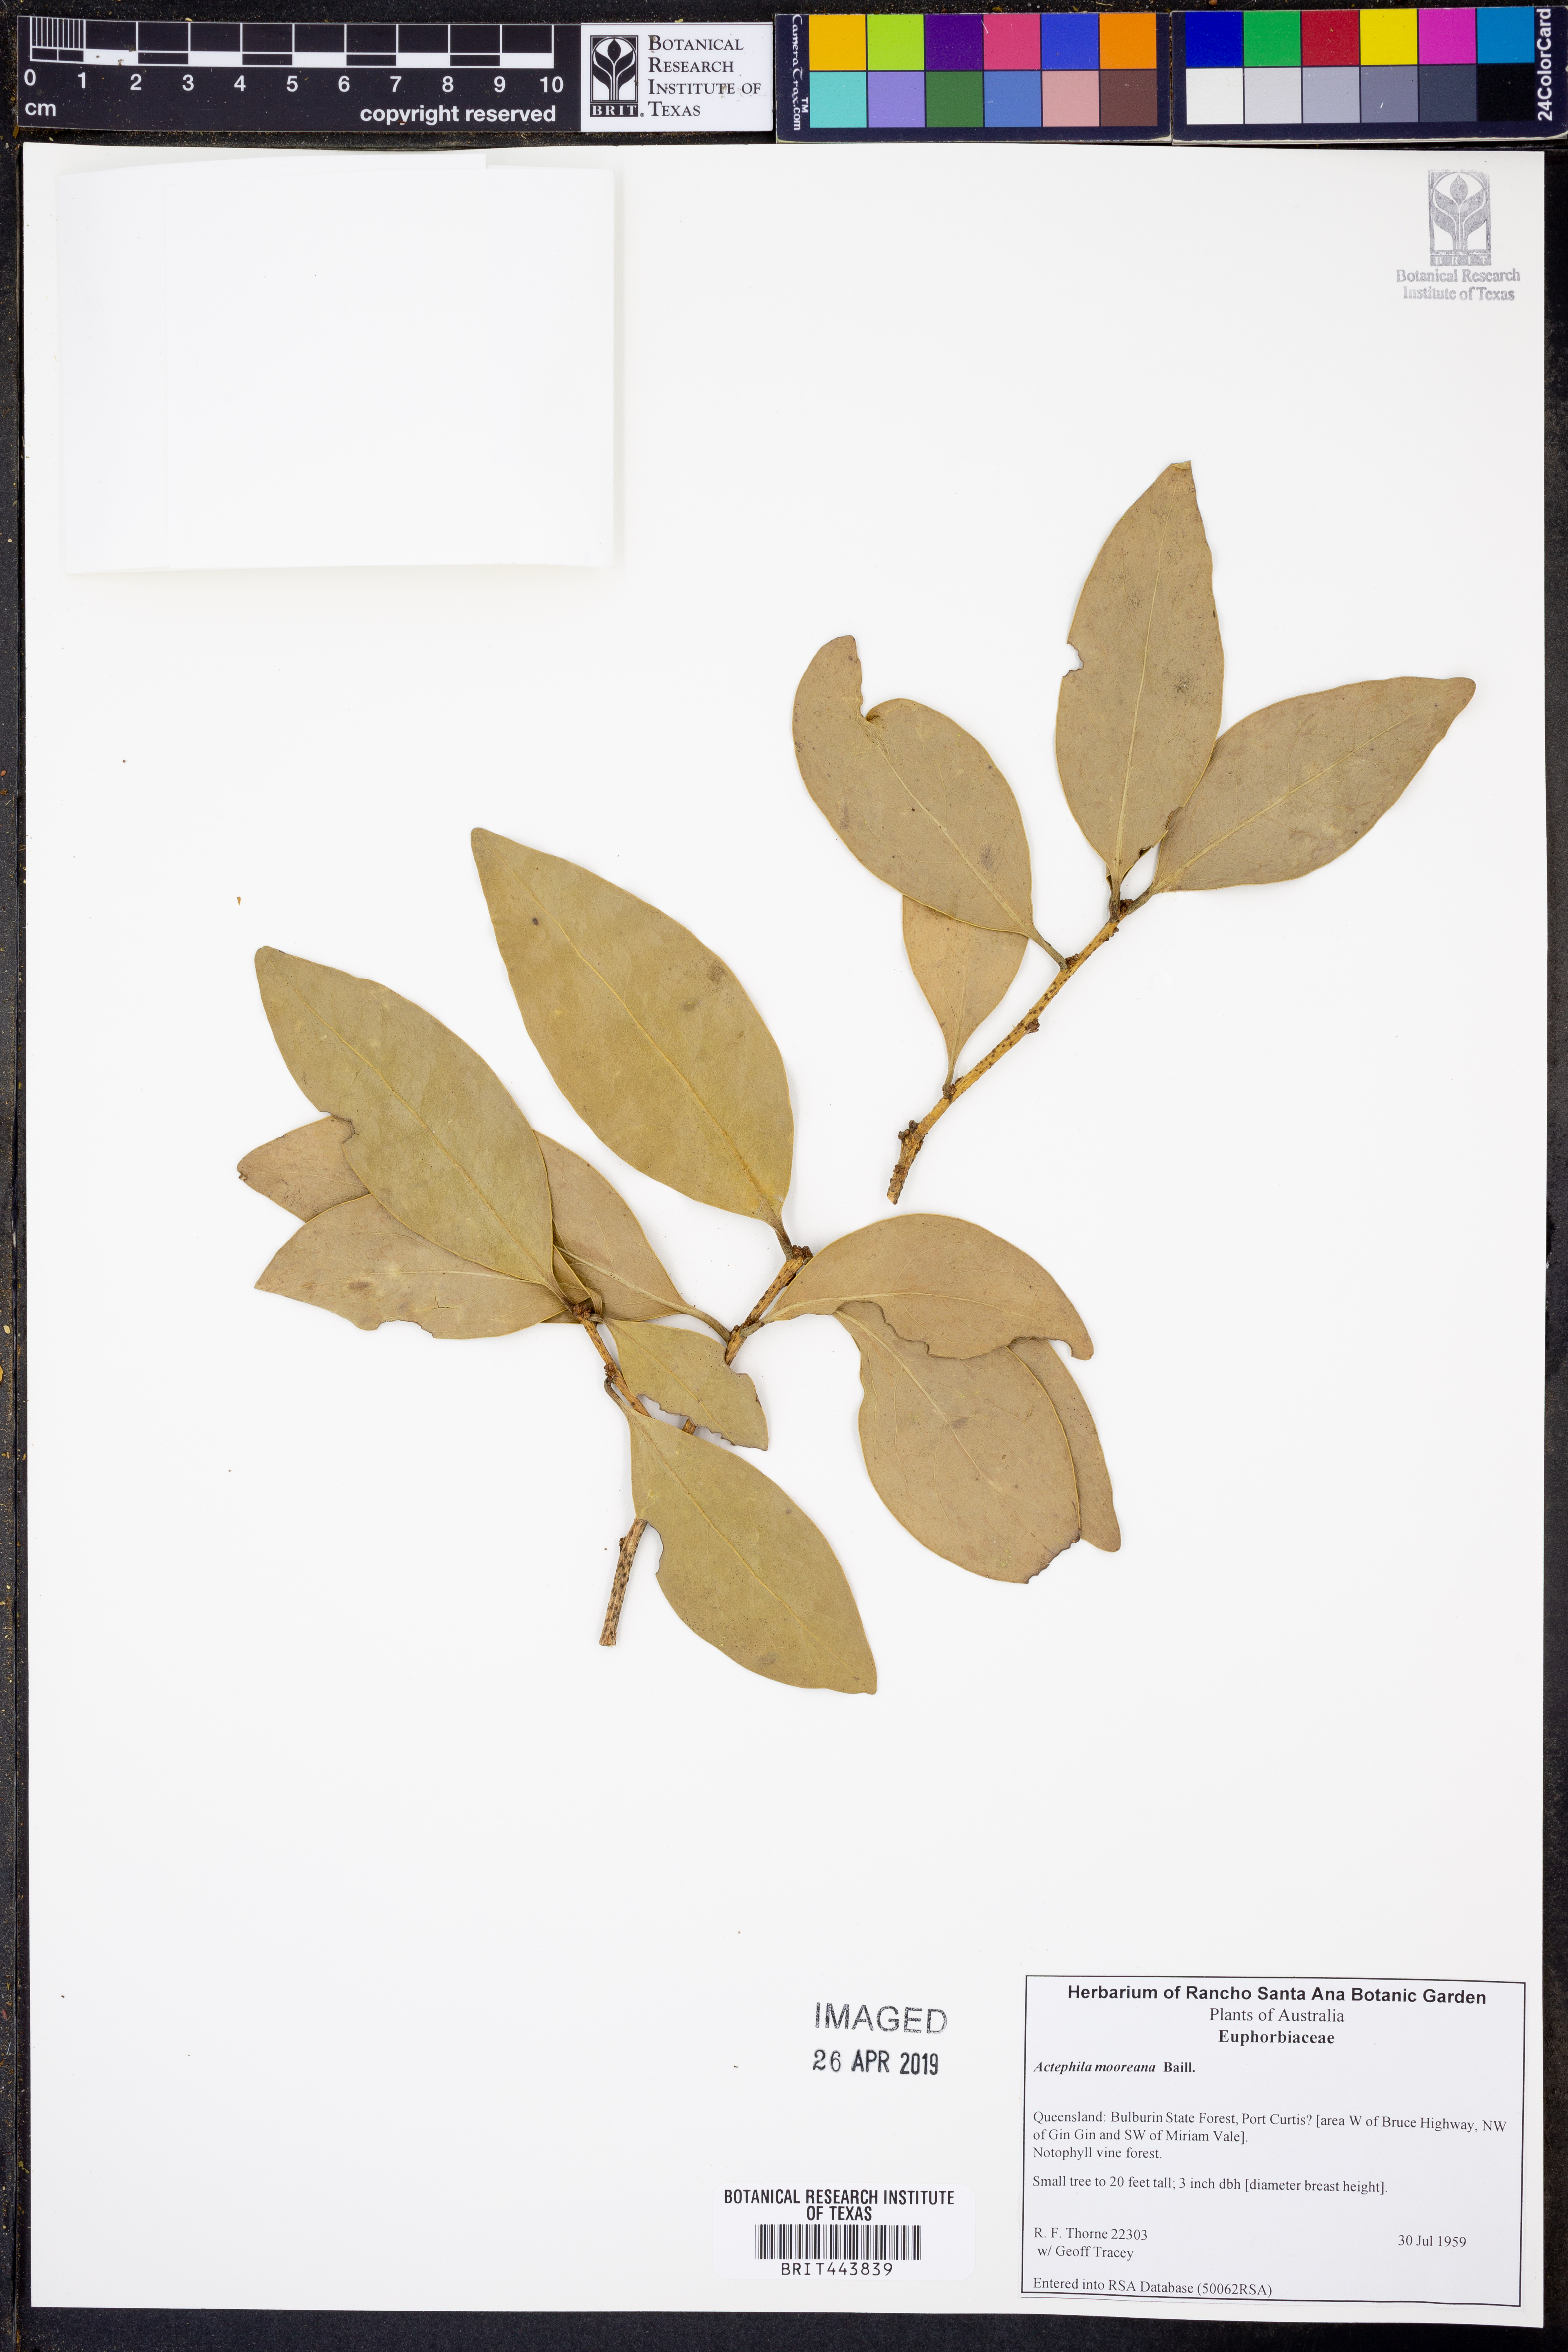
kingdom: Plantae
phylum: Tracheophyta
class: Magnoliopsida
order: Malpighiales
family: Phyllanthaceae
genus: Actephila
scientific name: Actephila mooreana
